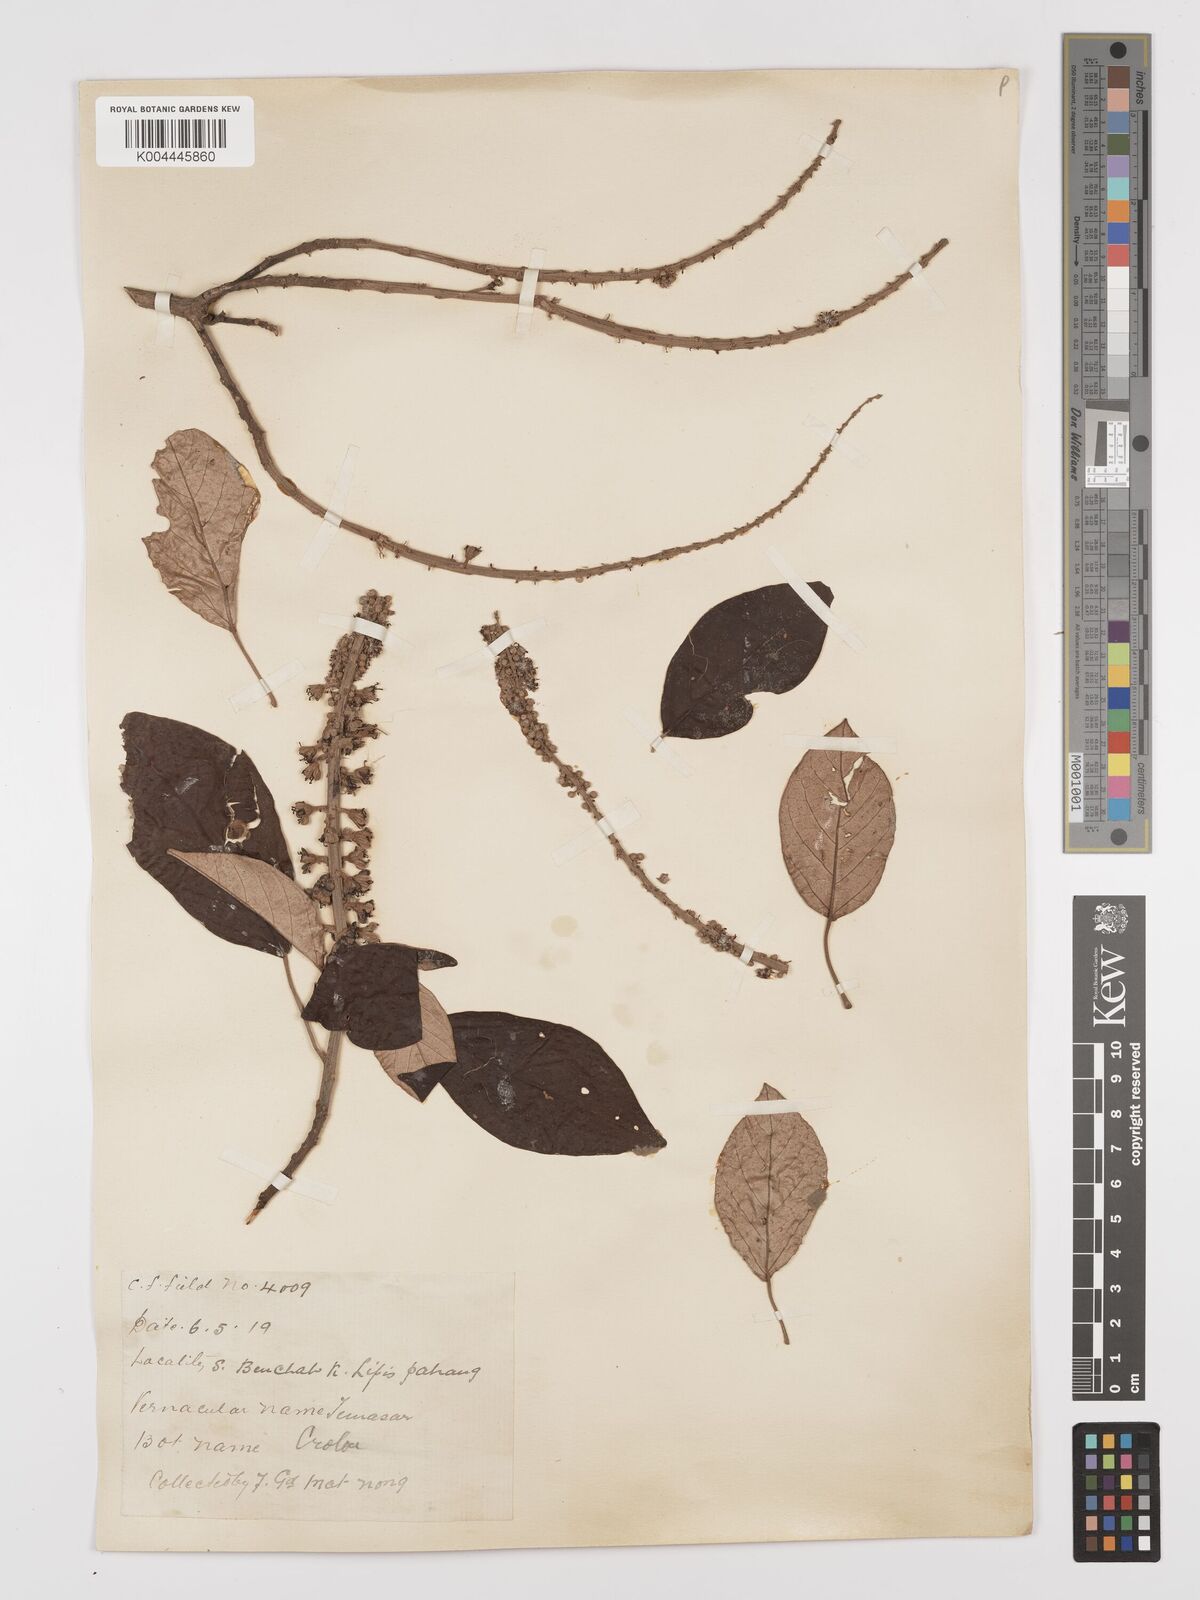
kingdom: Plantae
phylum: Tracheophyta
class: Magnoliopsida
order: Malpighiales
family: Euphorbiaceae
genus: Croton
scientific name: Croton argyratus
